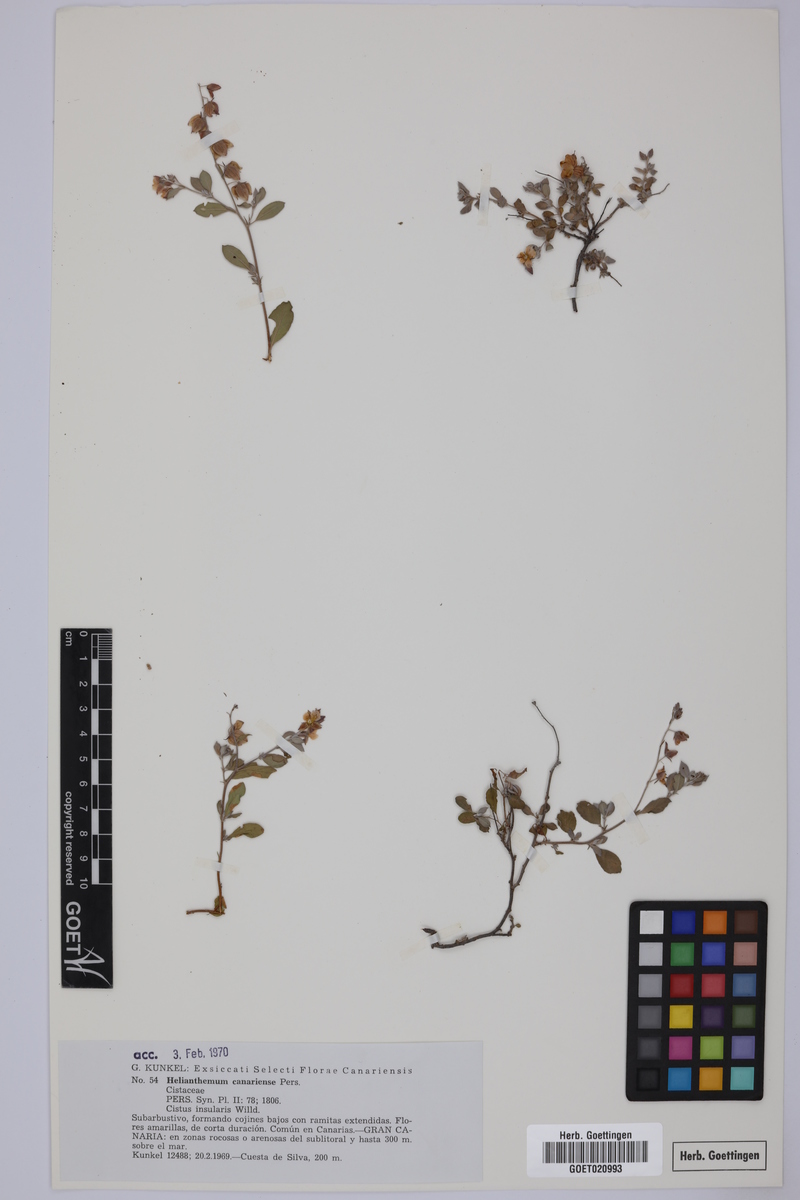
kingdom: Plantae
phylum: Tracheophyta
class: Magnoliopsida
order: Malvales
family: Cistaceae
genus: Helianthemum
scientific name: Helianthemum canariense
